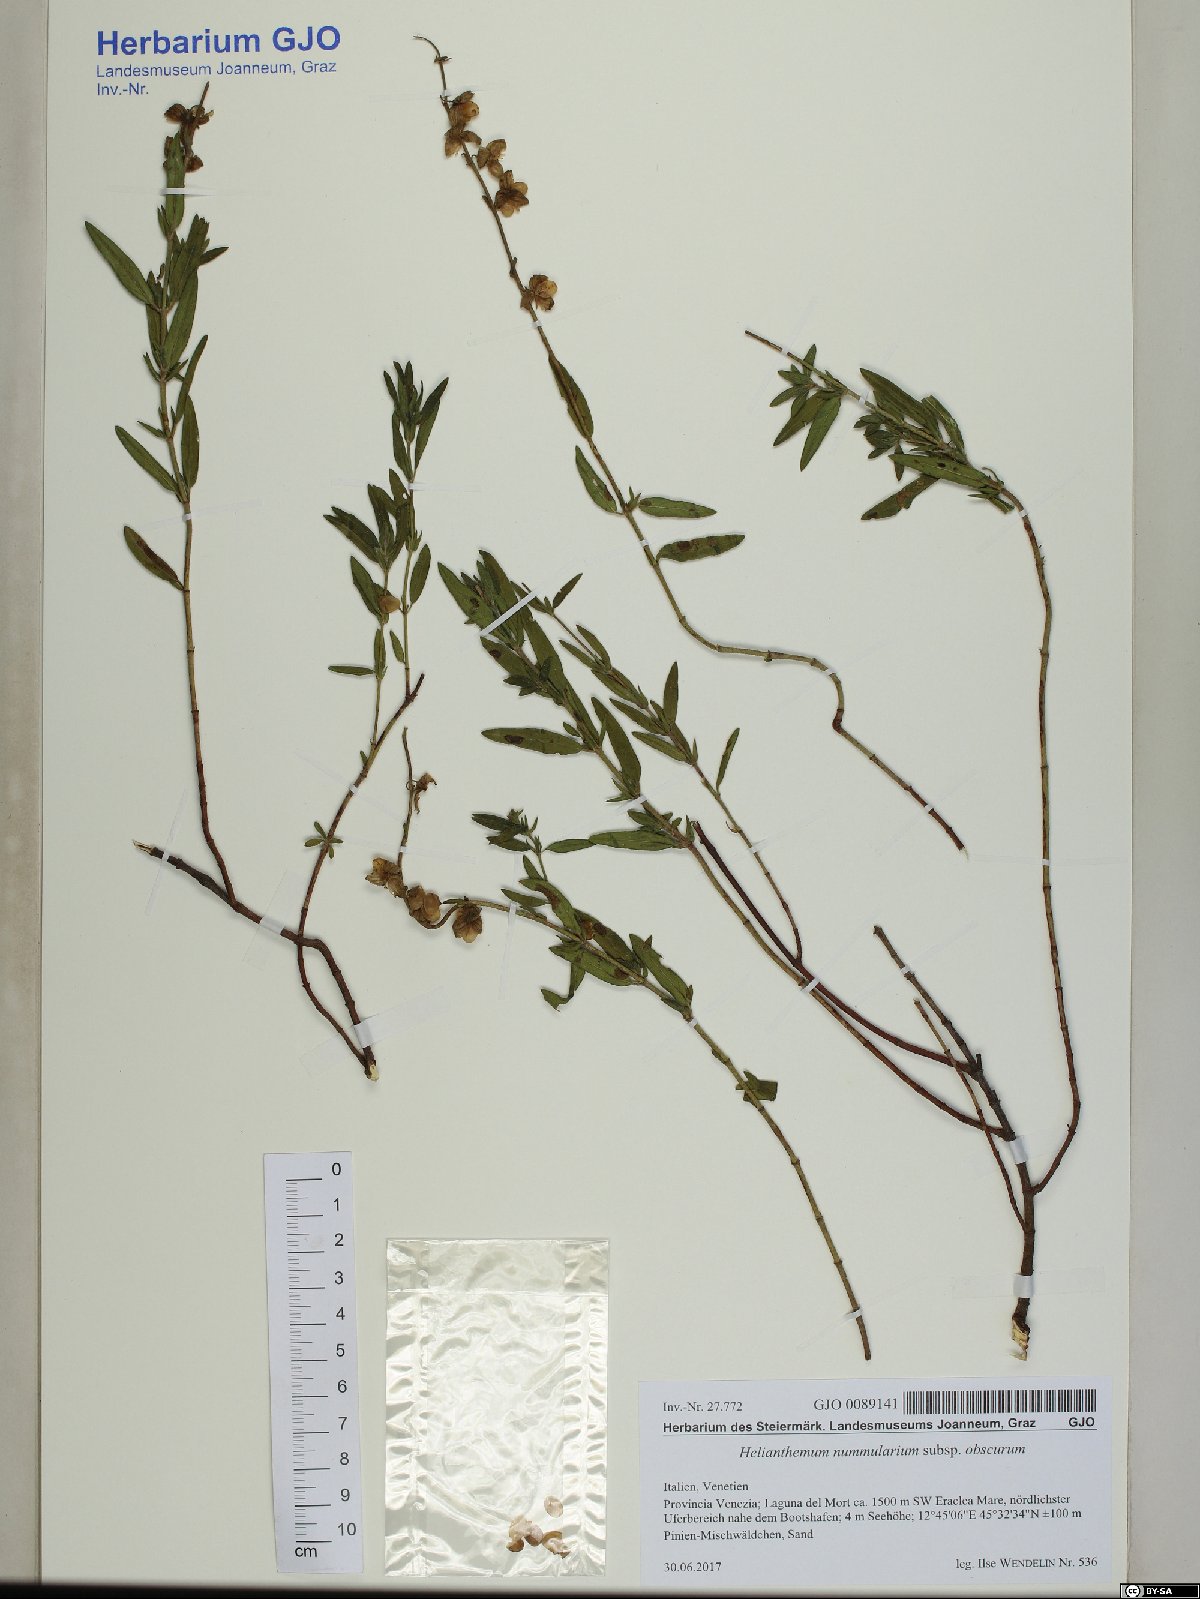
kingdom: Plantae
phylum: Tracheophyta
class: Magnoliopsida
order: Malvales
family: Cistaceae
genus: Helianthemum
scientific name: Helianthemum nummularium
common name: Common rock-rose
